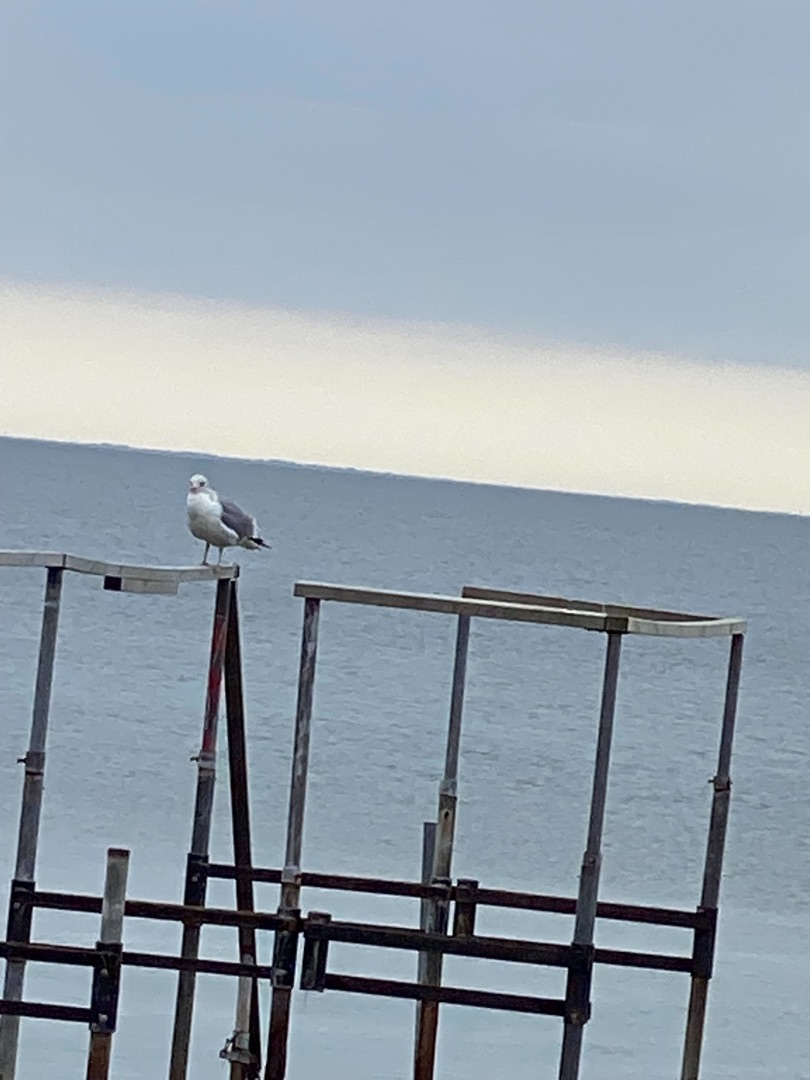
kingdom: Animalia
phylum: Chordata
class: Aves
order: Charadriiformes
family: Laridae
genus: Larus
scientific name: Larus argentatus
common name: Sølvmåge
